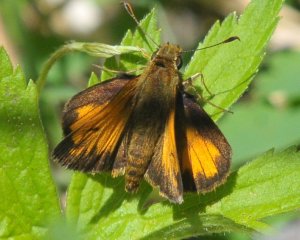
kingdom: Animalia
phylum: Arthropoda
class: Insecta
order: Lepidoptera
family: Hesperiidae
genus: Lon
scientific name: Lon hobomok
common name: Hobomok Skipper
